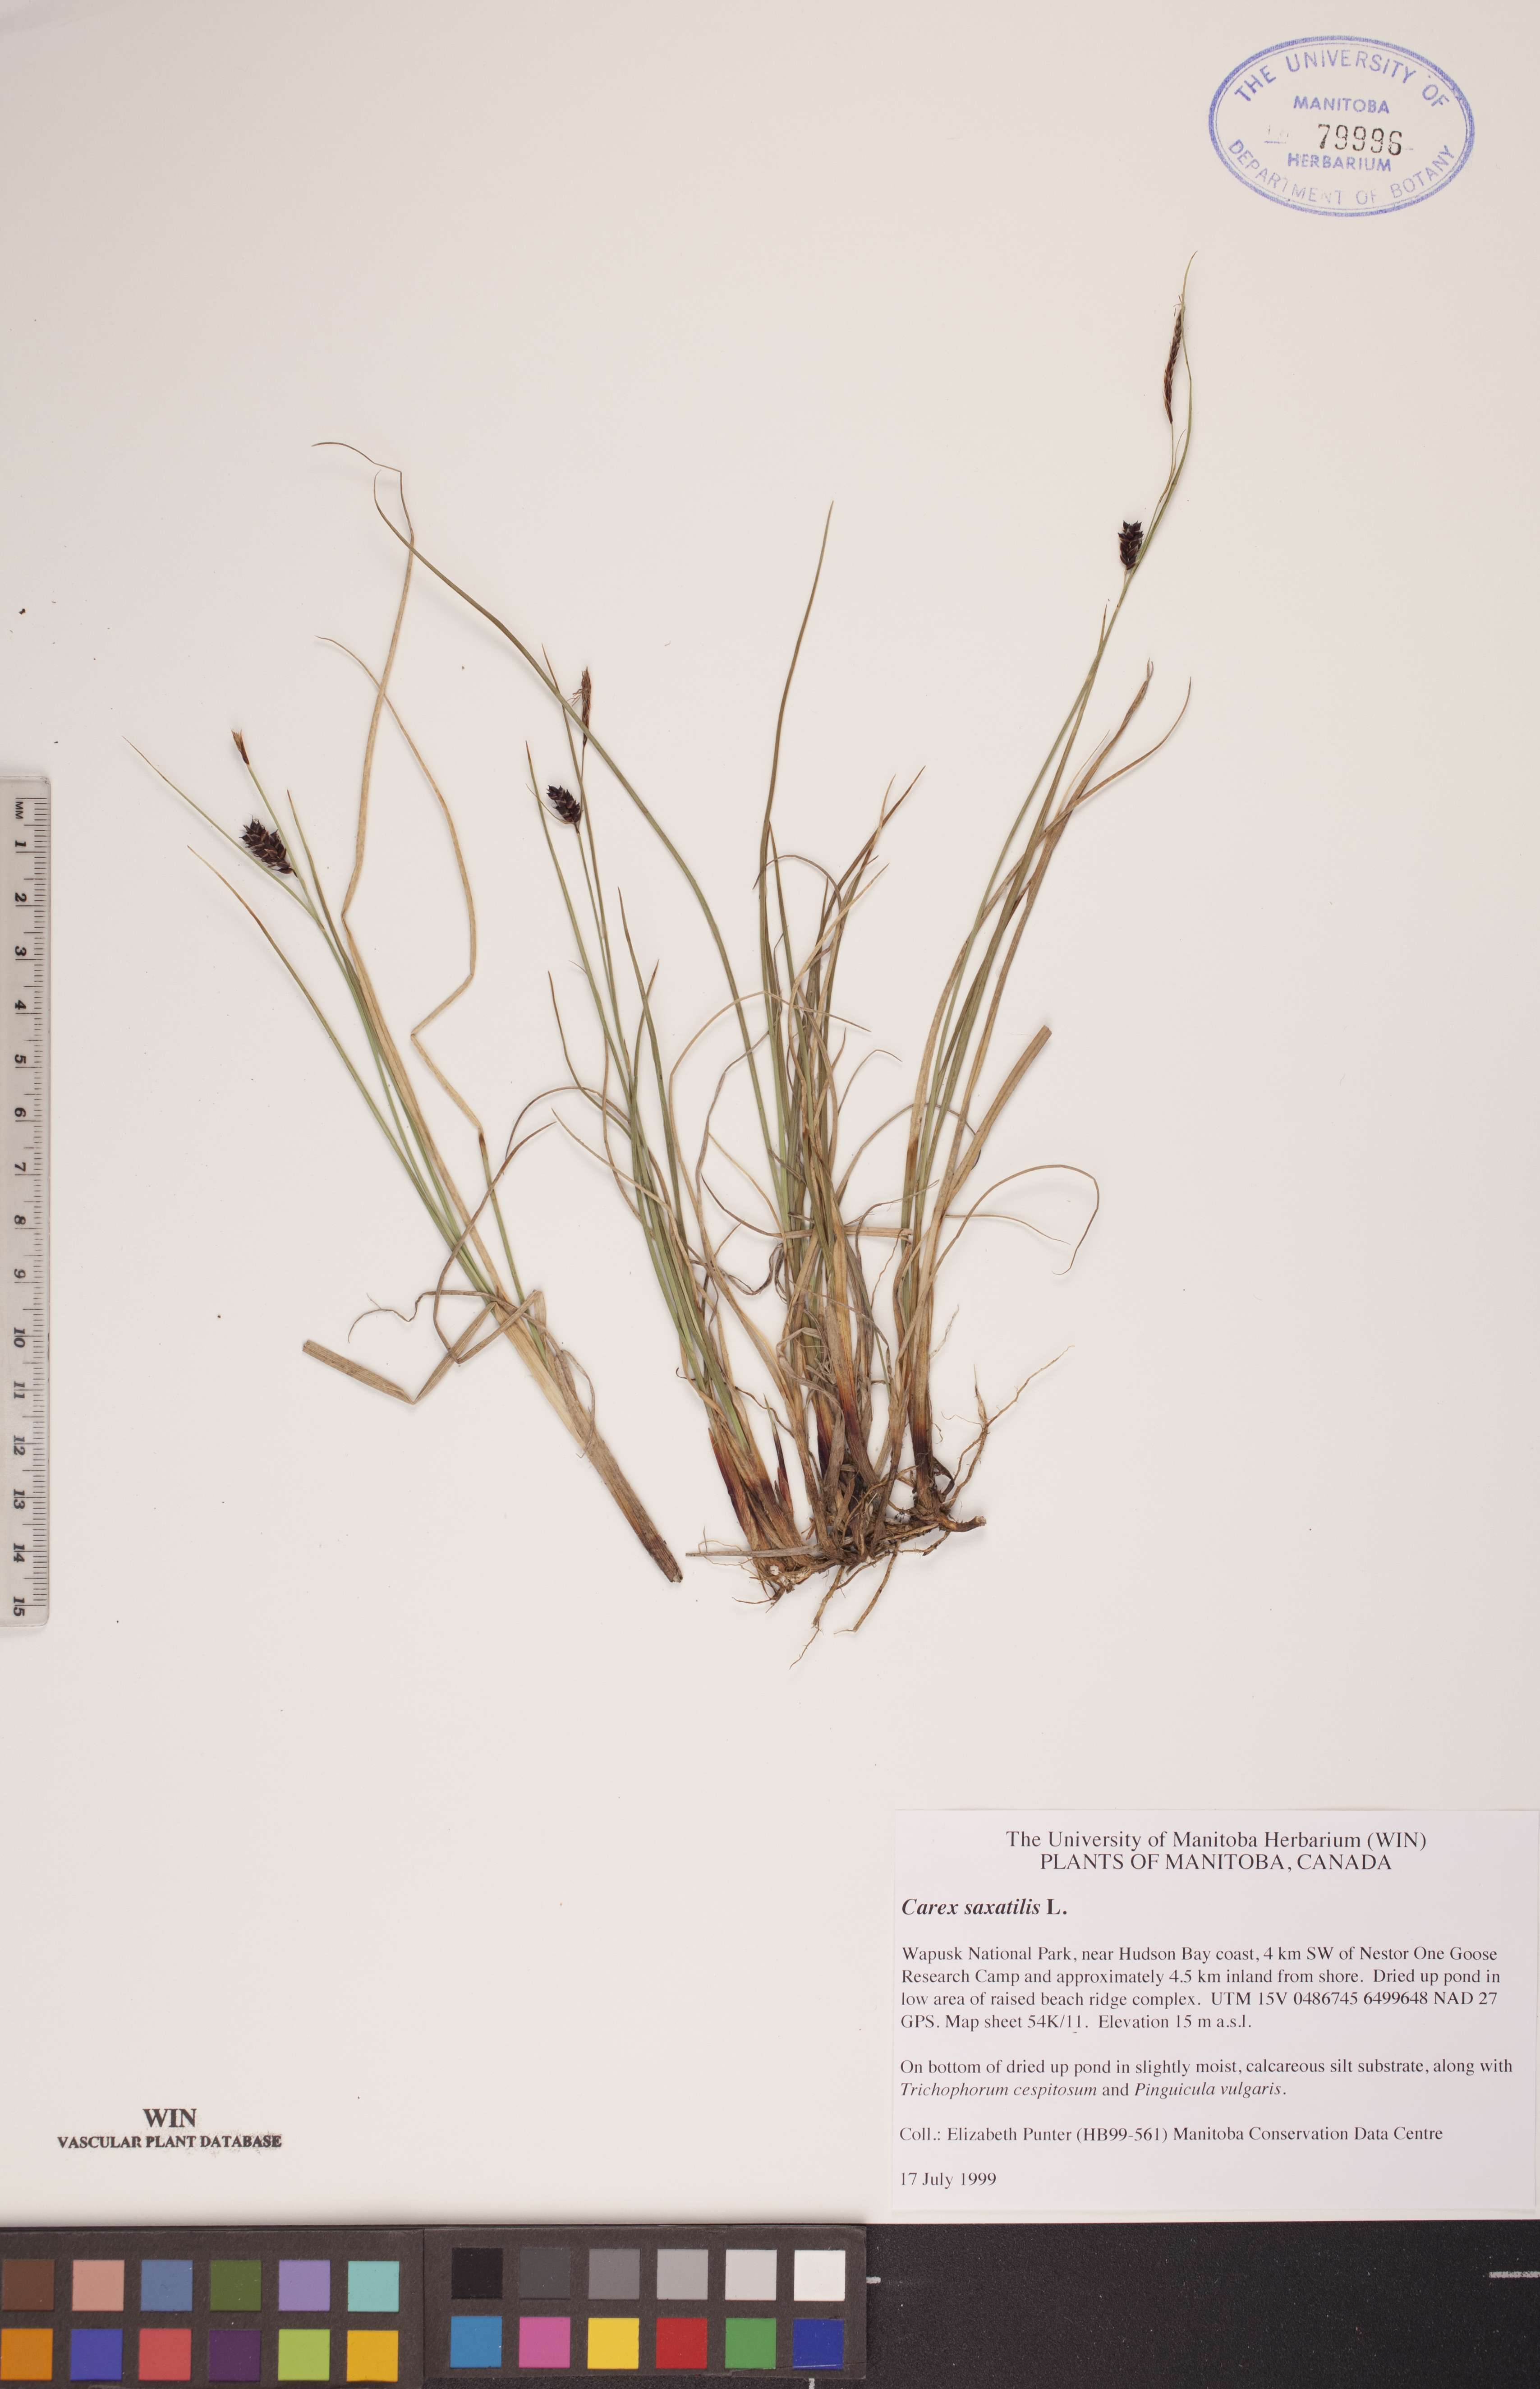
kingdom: Plantae
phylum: Tracheophyta
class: Liliopsida
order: Poales
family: Cyperaceae
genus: Carex
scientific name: Carex saxatilis
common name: Russet sedge
